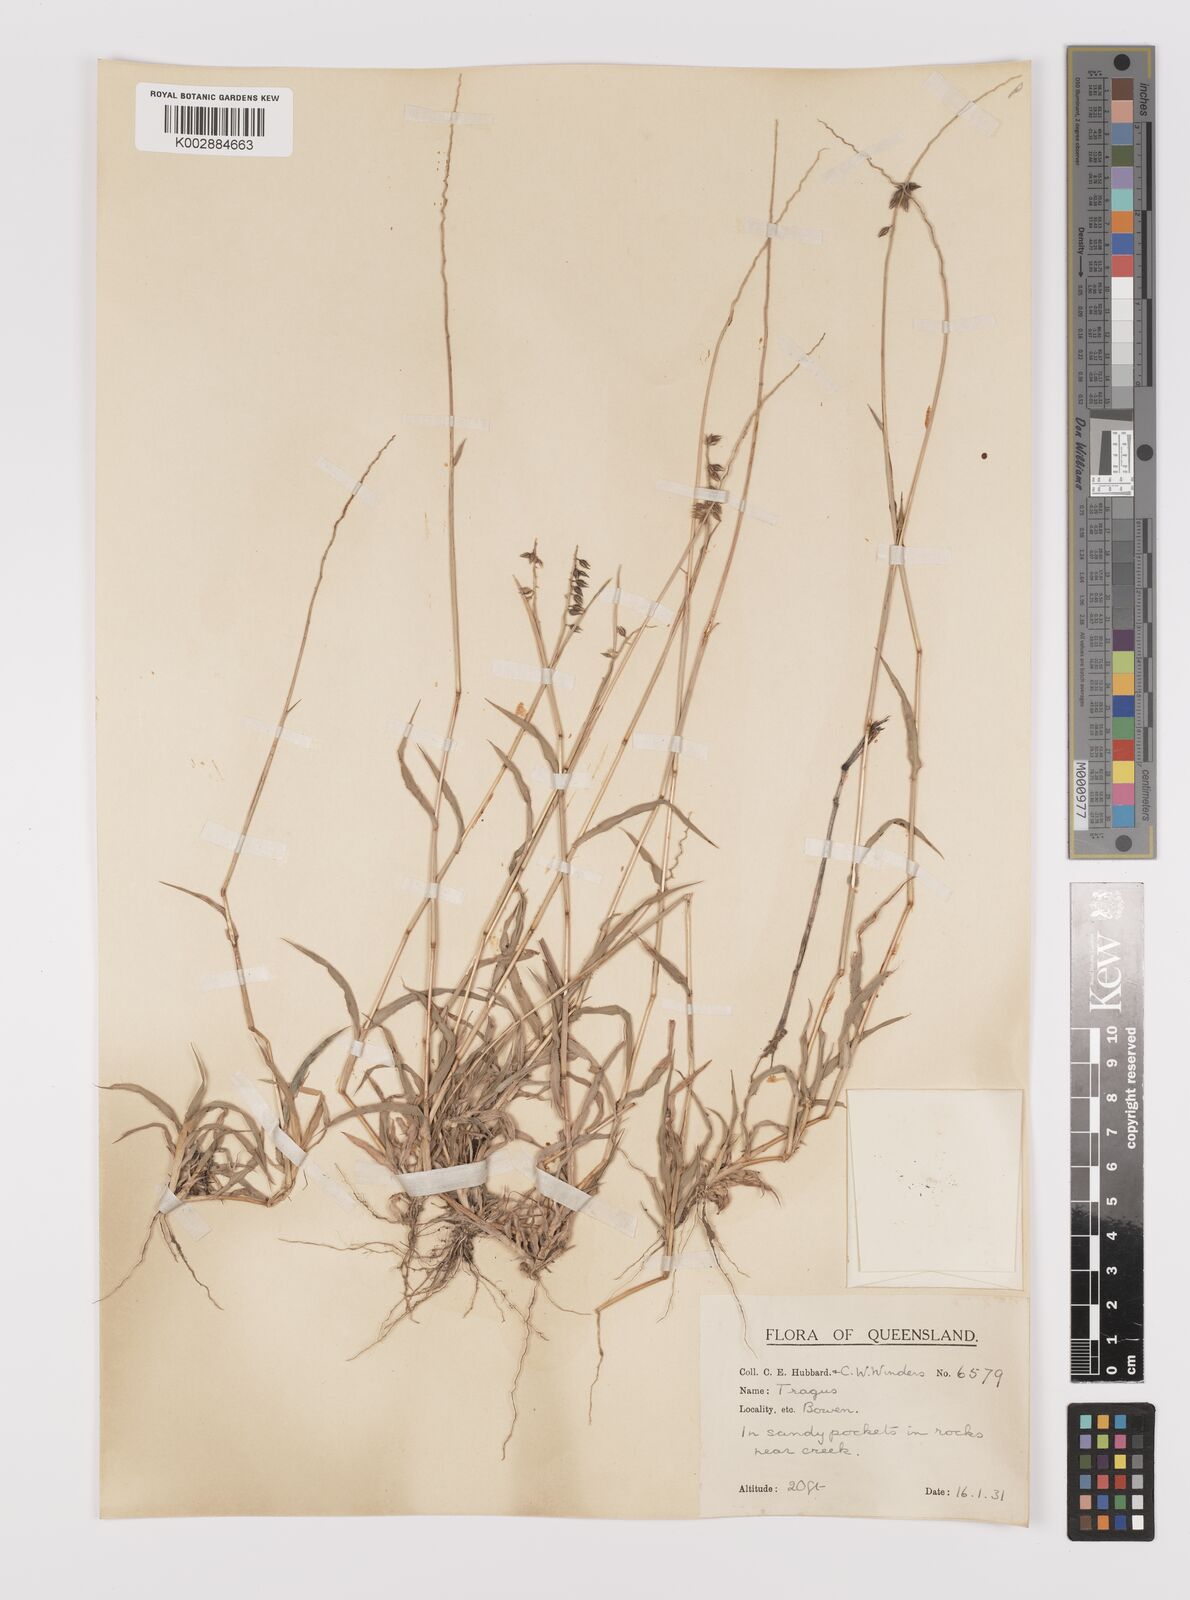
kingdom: Plantae
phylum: Tracheophyta
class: Liliopsida
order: Poales
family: Poaceae
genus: Tragus
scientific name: Tragus australianus
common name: Australian bur-grass
